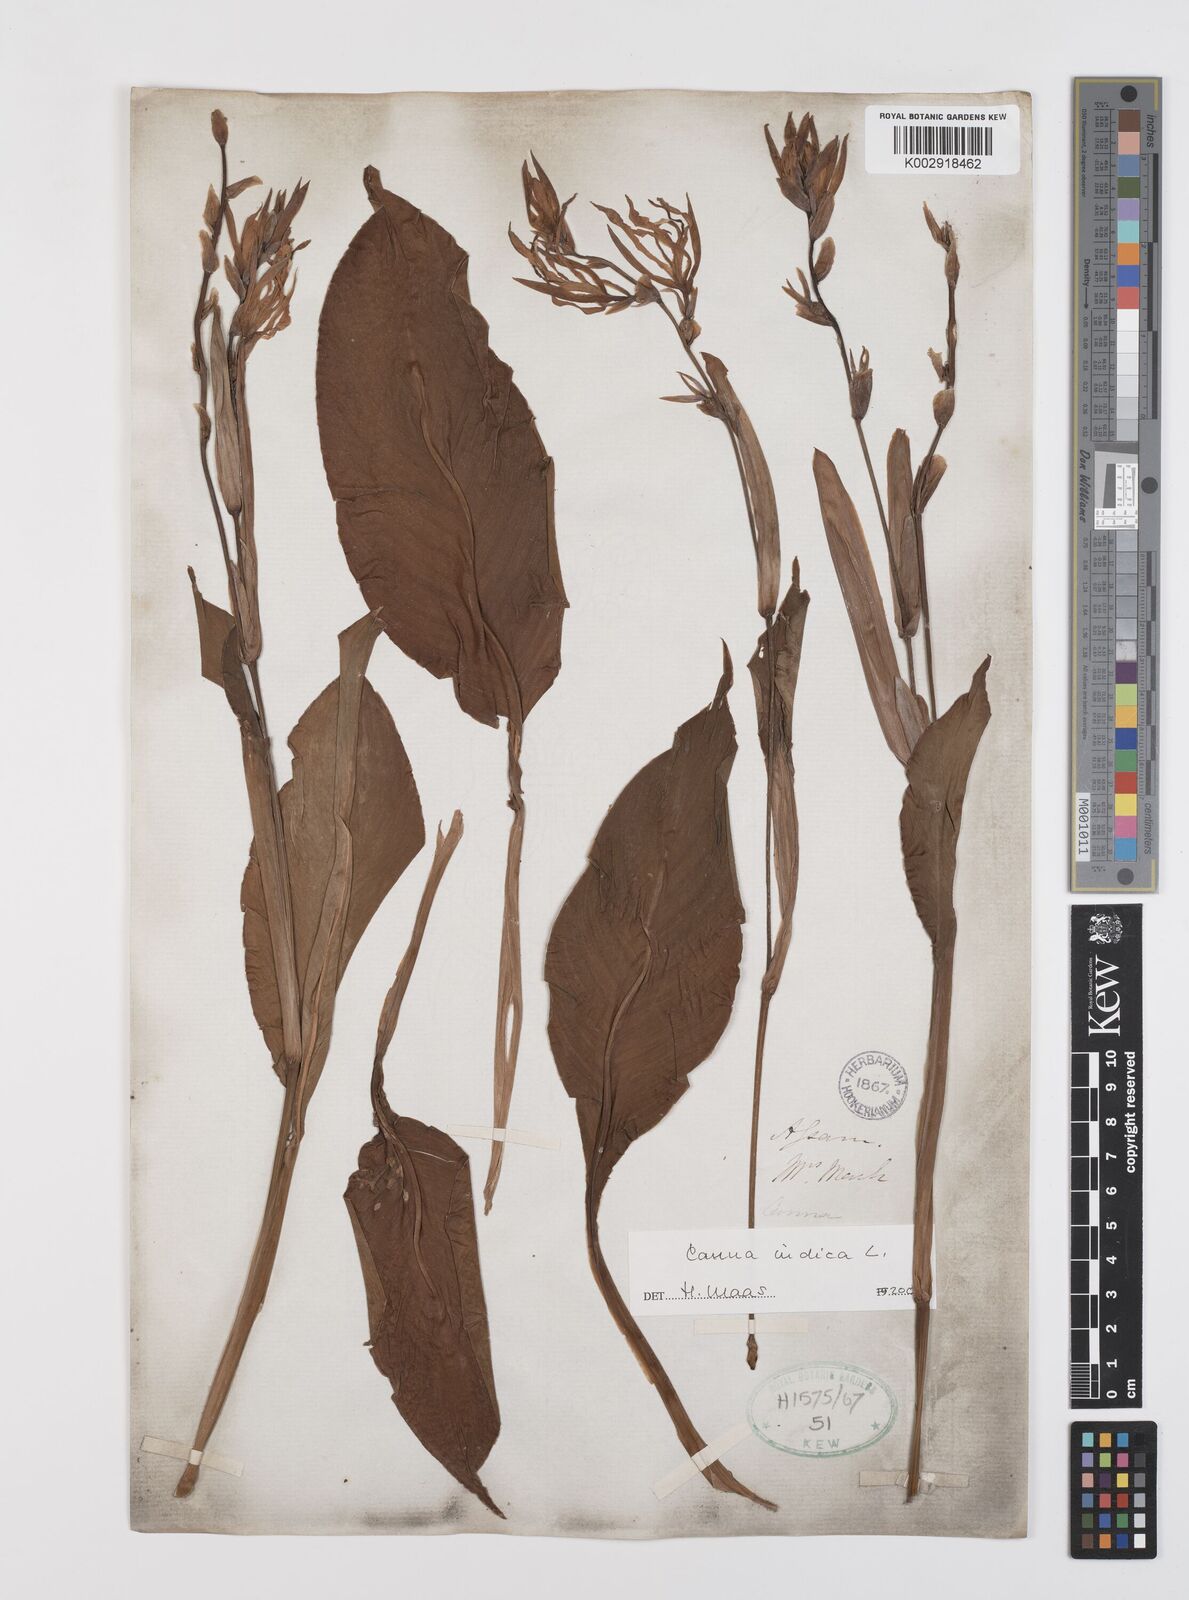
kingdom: Plantae
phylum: Tracheophyta
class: Liliopsida
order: Zingiberales
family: Cannaceae
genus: Canna
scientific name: Canna indica
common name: Indian shot
